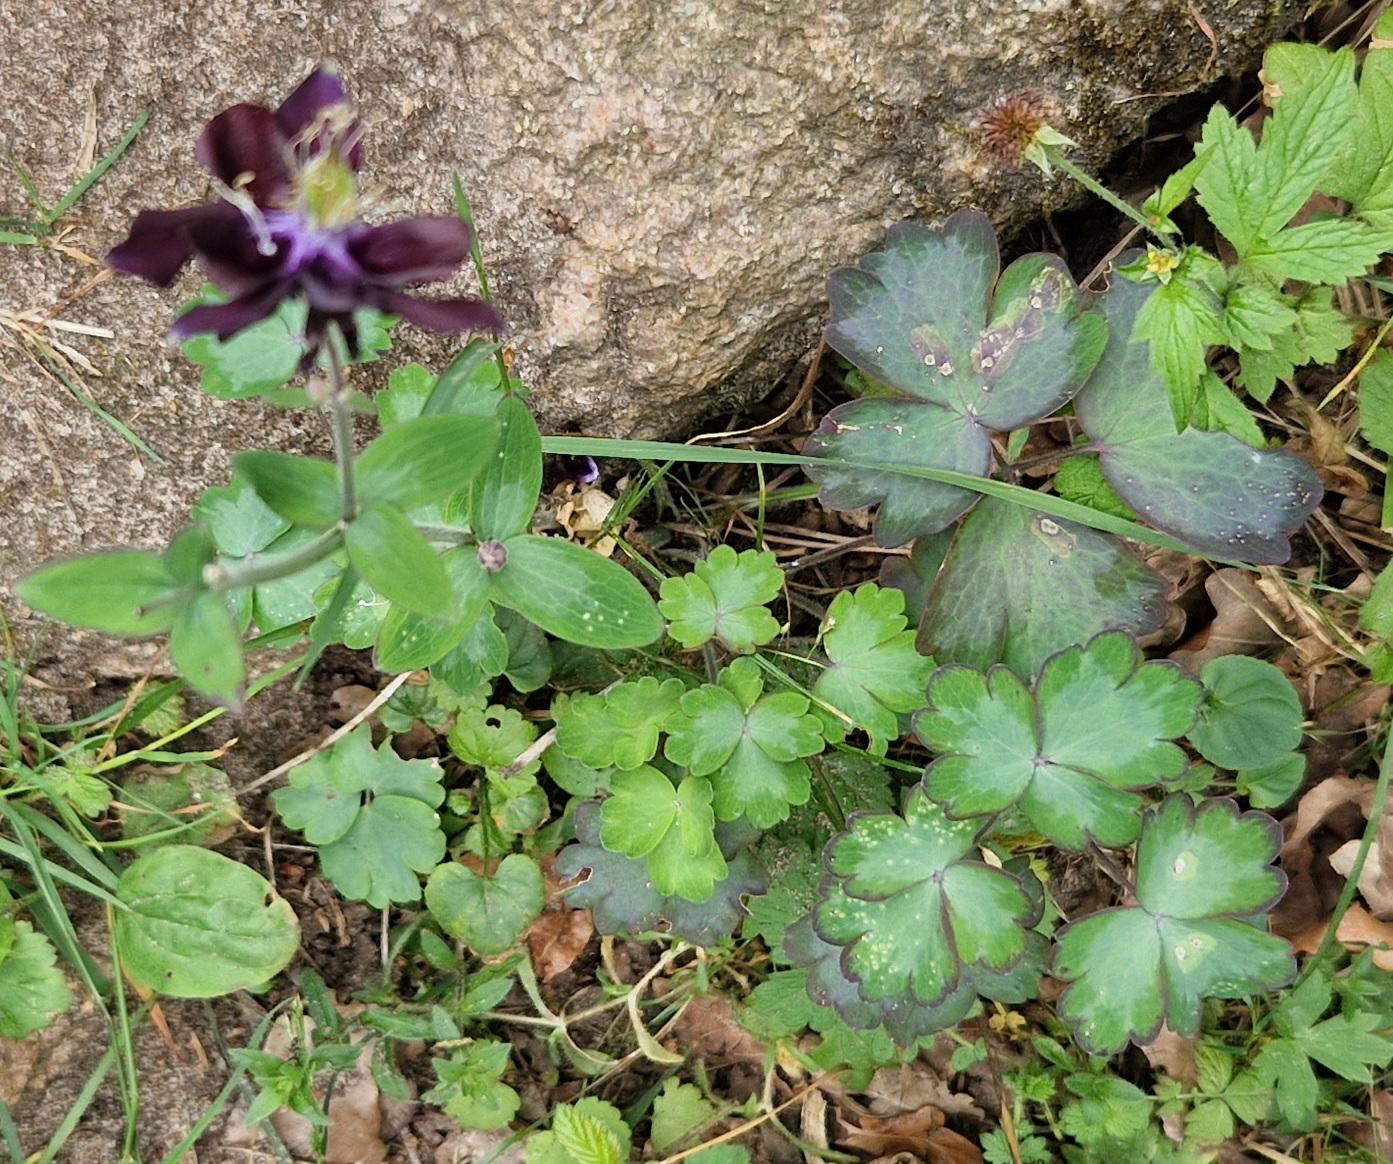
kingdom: Plantae
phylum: Tracheophyta
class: Magnoliopsida
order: Ranunculales
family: Ranunculaceae
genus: Aquilegia
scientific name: Aquilegia vulgaris
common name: Akeleje
